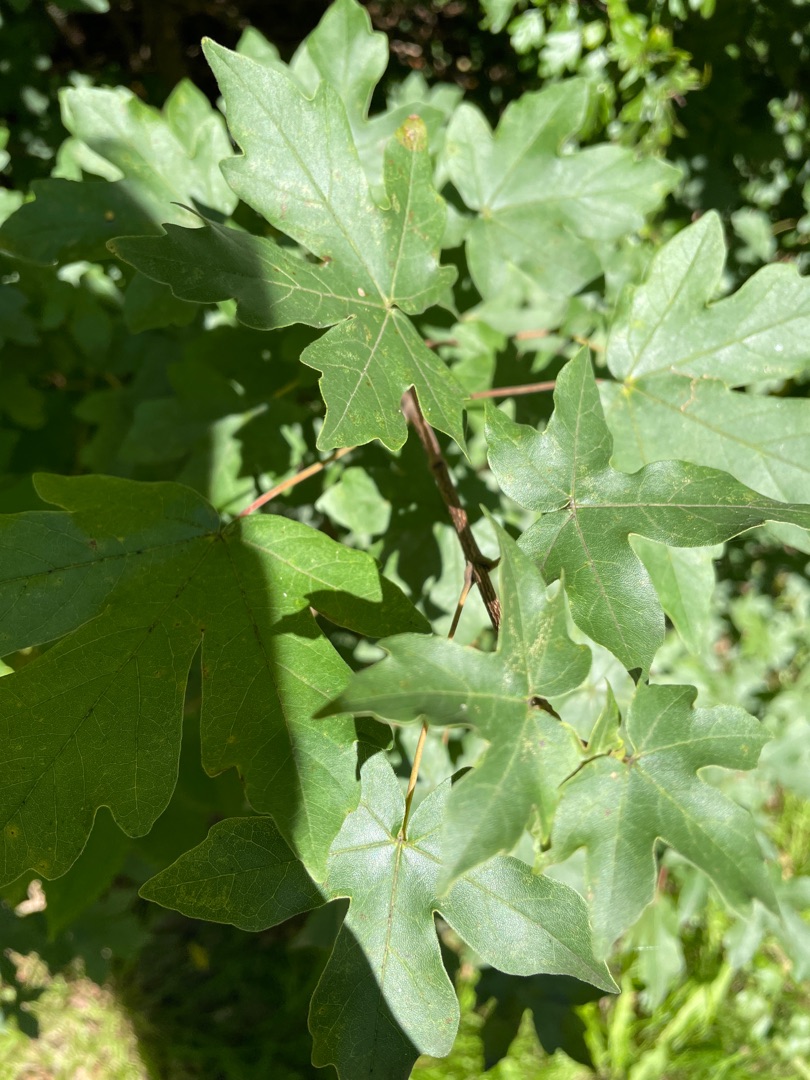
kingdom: Plantae
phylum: Tracheophyta
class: Magnoliopsida
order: Sapindales
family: Sapindaceae
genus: Acer
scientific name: Acer campestre
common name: Navr
